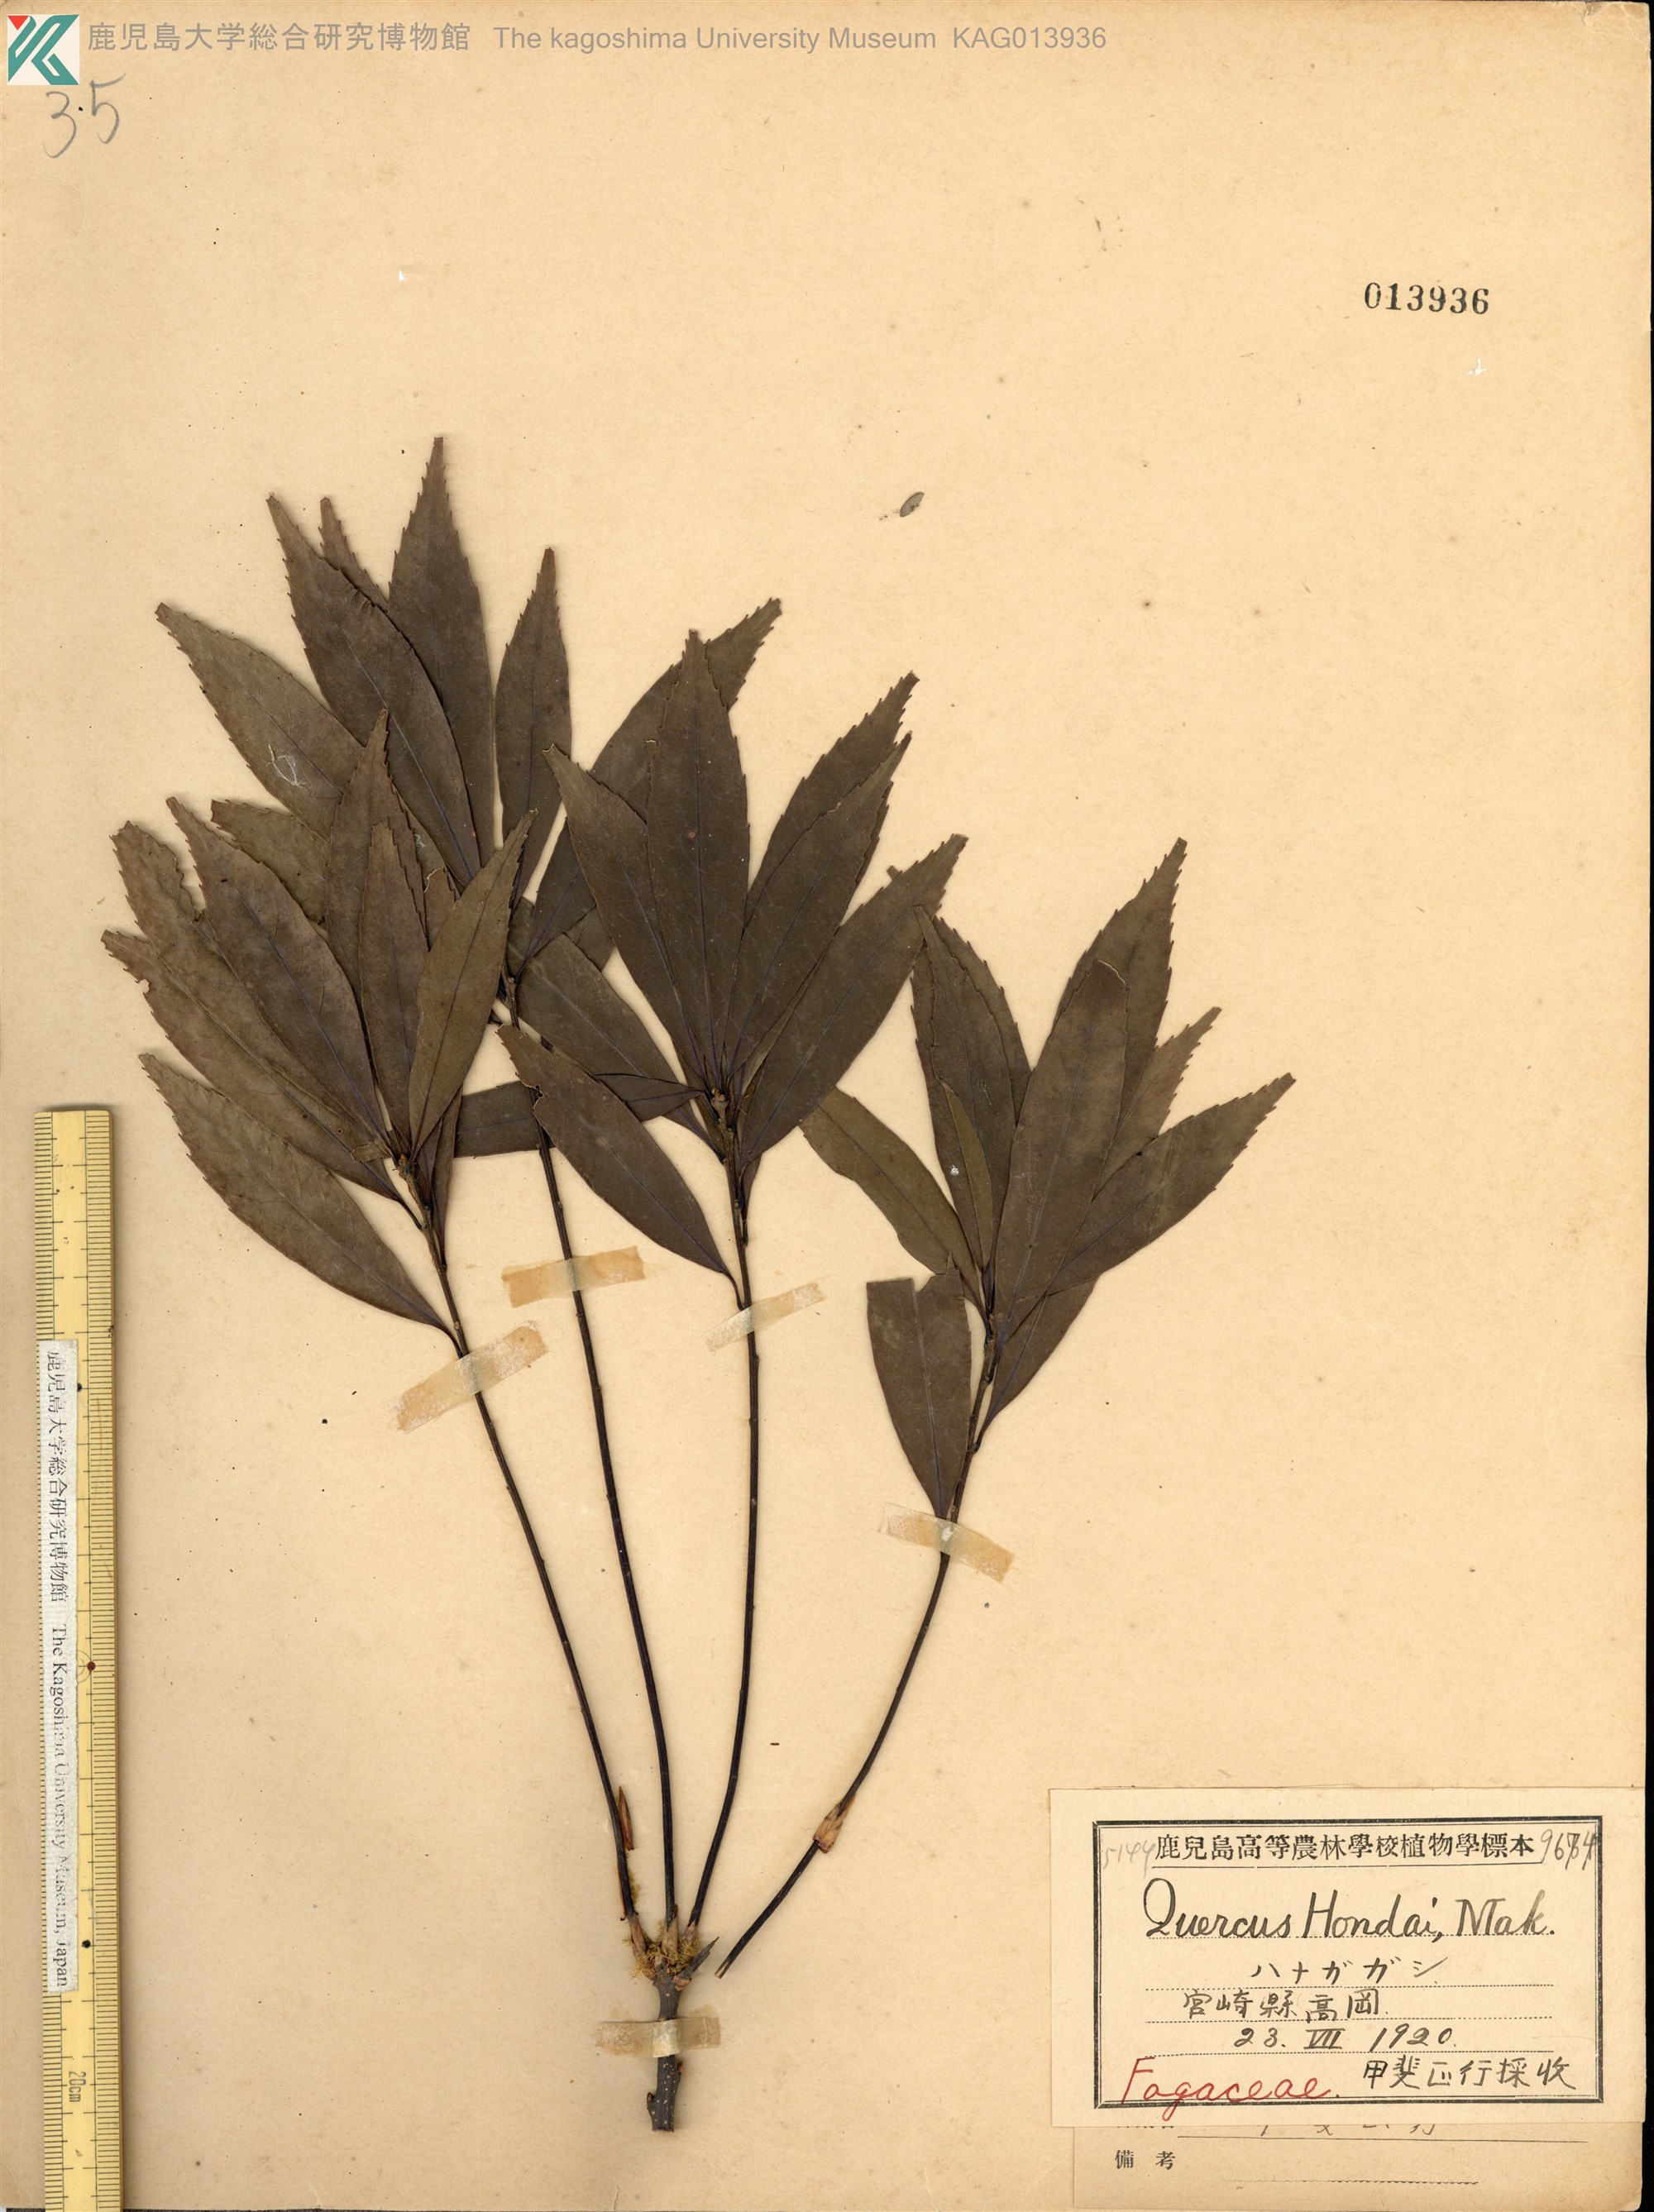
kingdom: Plantae
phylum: Tracheophyta
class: Magnoliopsida
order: Fagales
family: Fagaceae
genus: Quercus
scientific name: Quercus hondae
